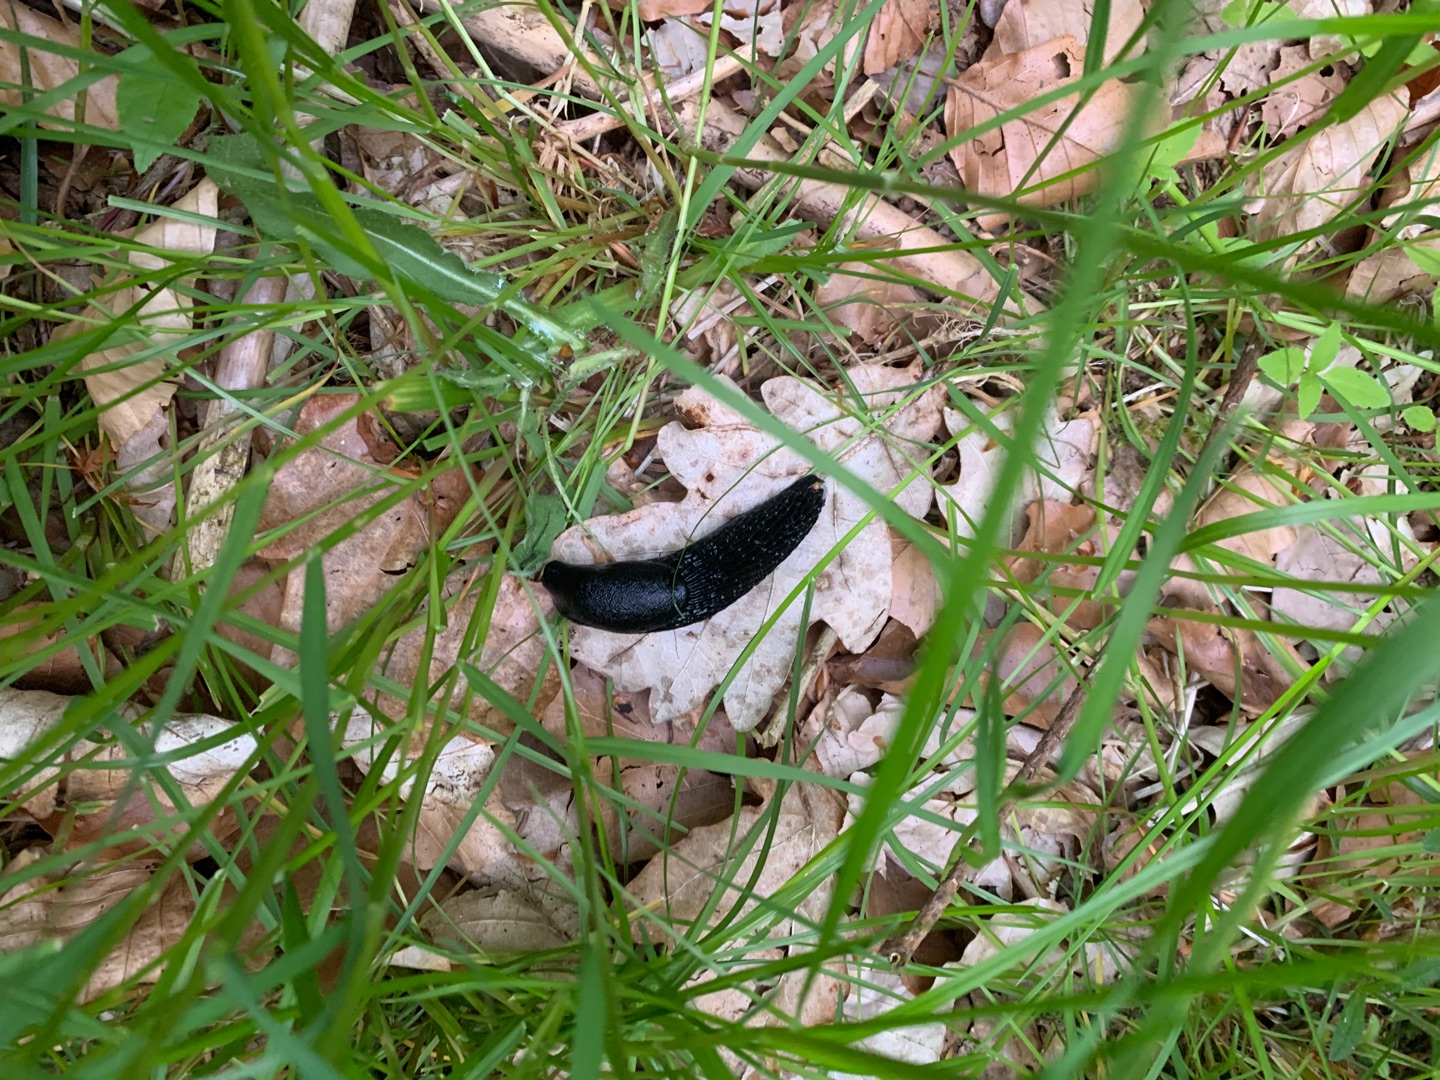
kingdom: Animalia
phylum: Mollusca
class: Gastropoda
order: Stylommatophora
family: Arionidae
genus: Arion
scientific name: Arion ater
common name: Sort skovsnegl
